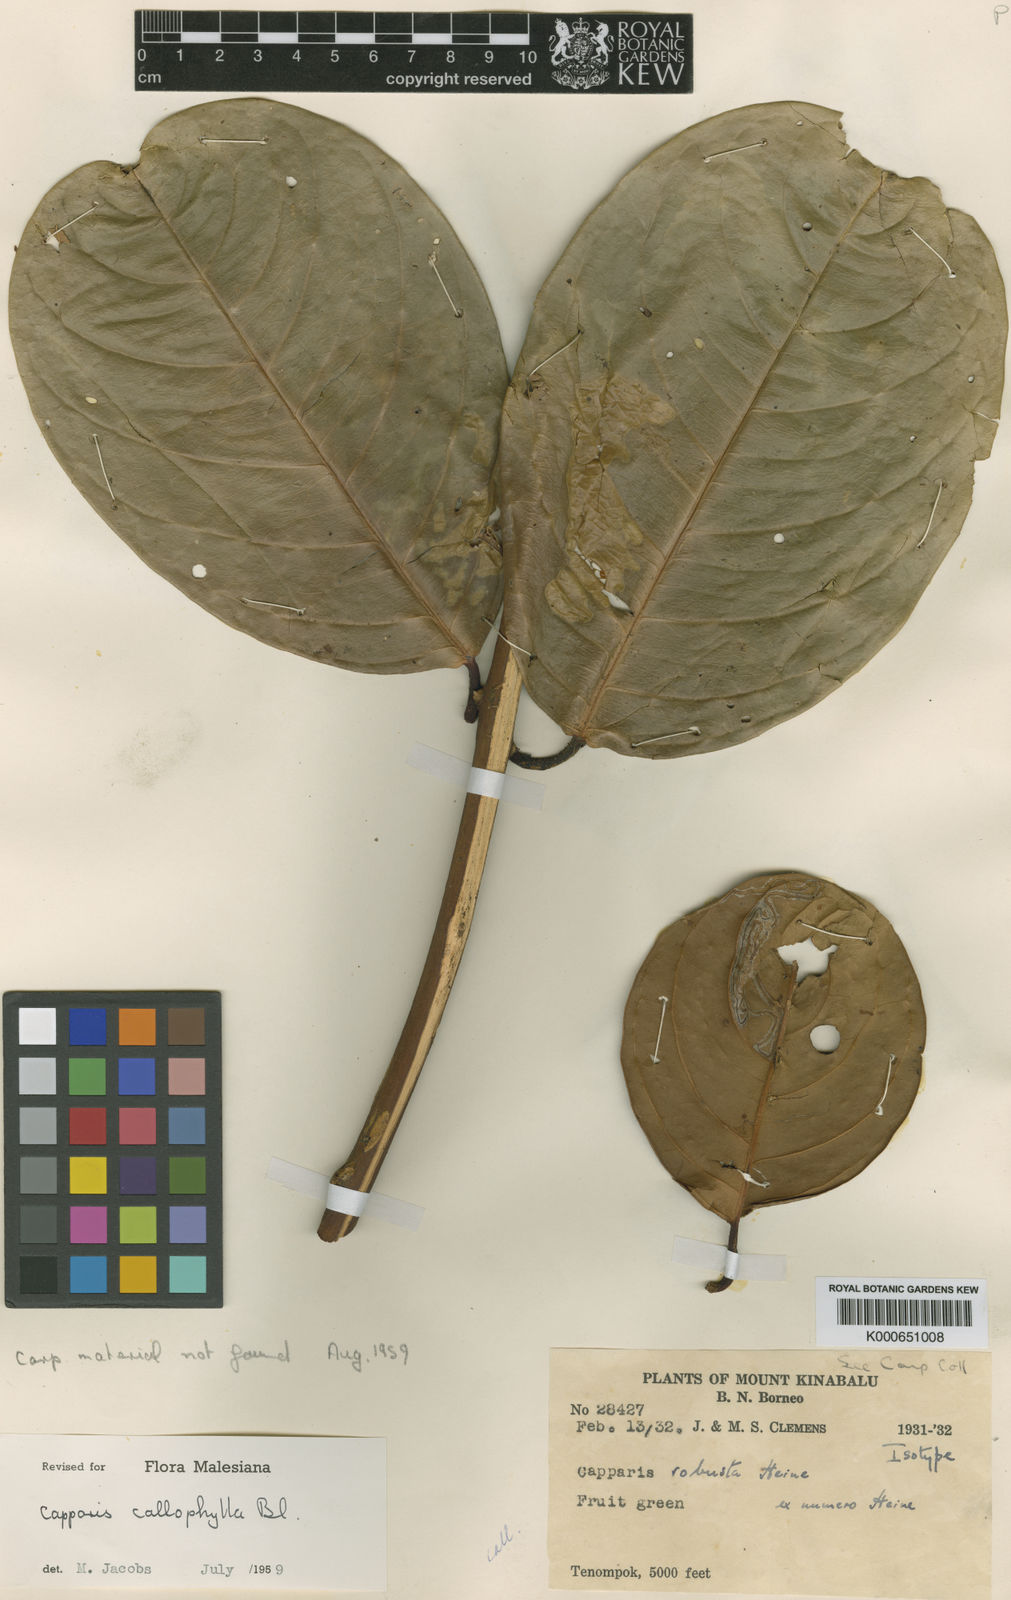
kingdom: Plantae
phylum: Tracheophyta
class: Magnoliopsida
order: Brassicales
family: Capparaceae
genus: Capparis
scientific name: Capparis callophylla
